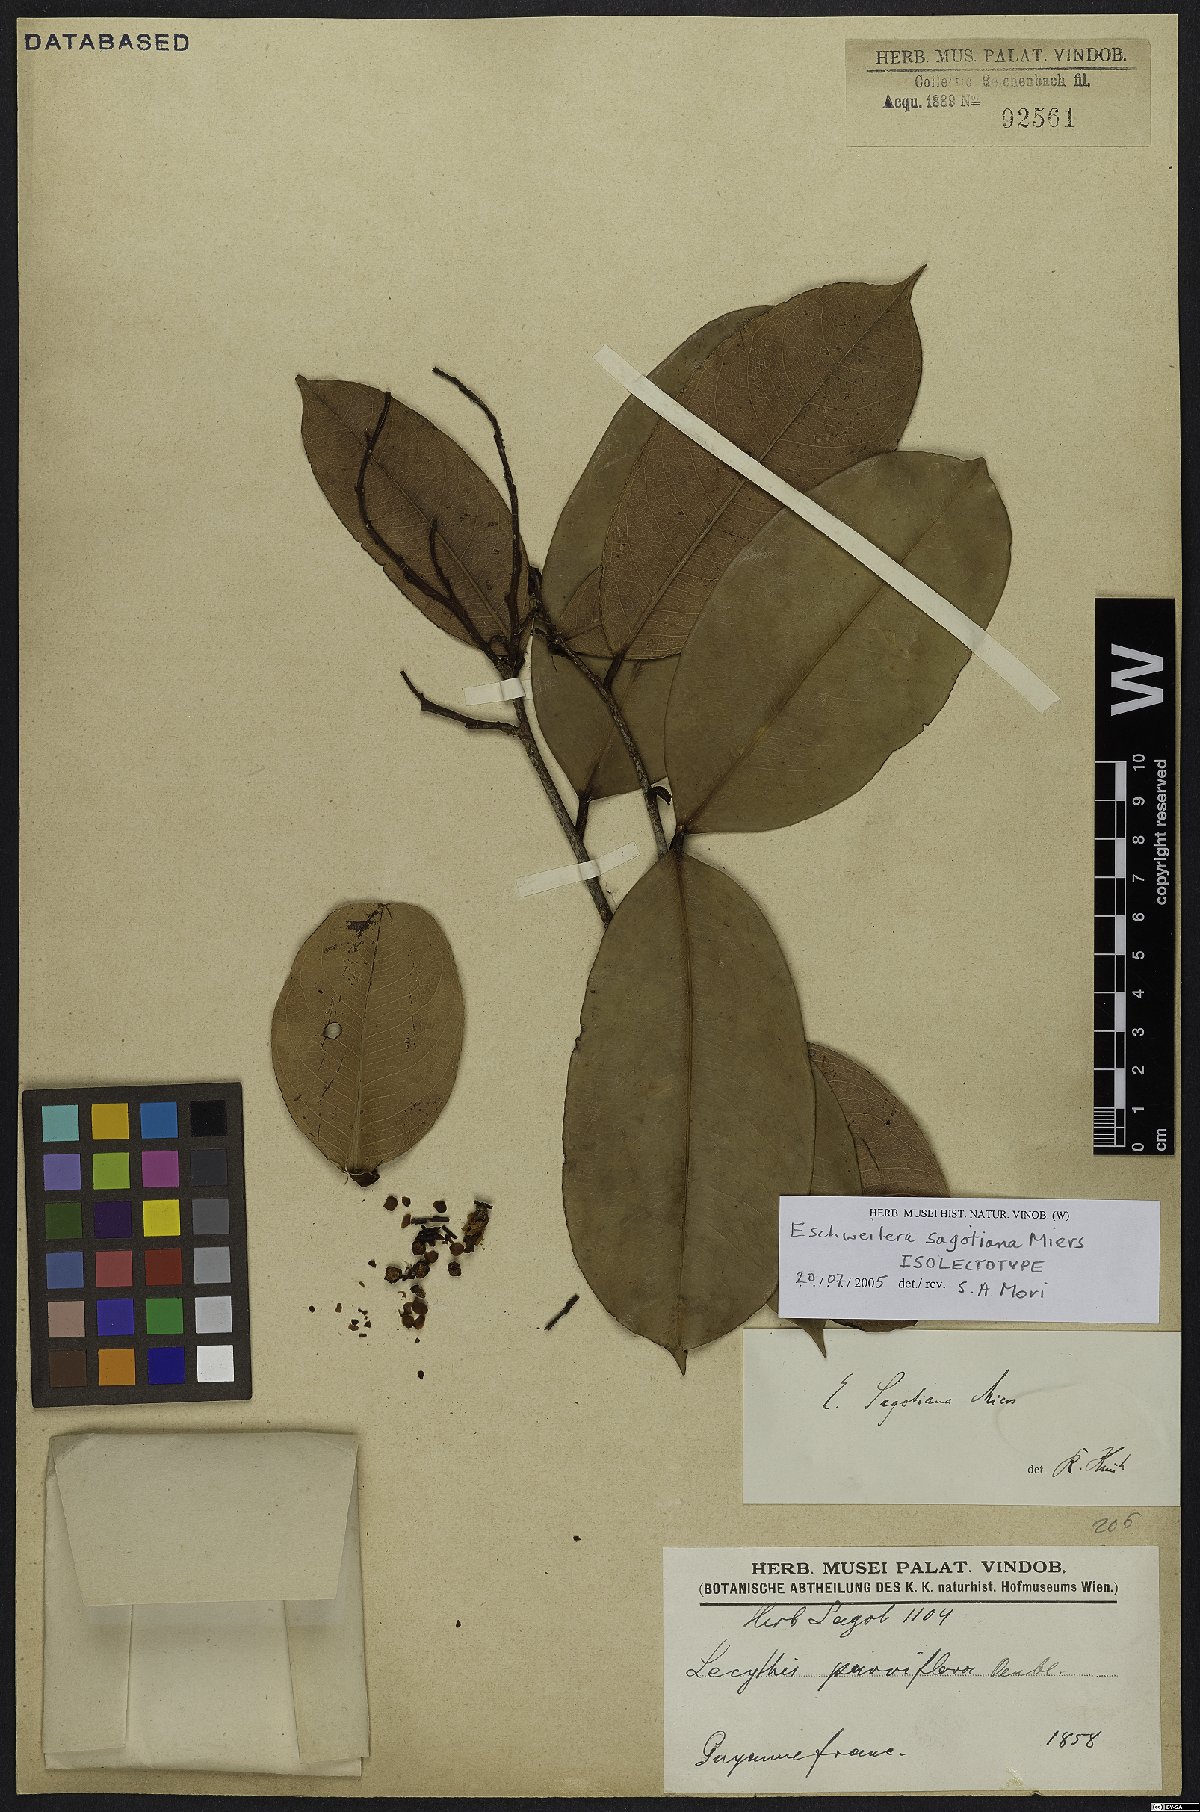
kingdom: Plantae
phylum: Tracheophyta
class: Magnoliopsida
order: Ericales
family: Lecythidaceae
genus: Eschweilera
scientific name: Eschweilera sagotiana
